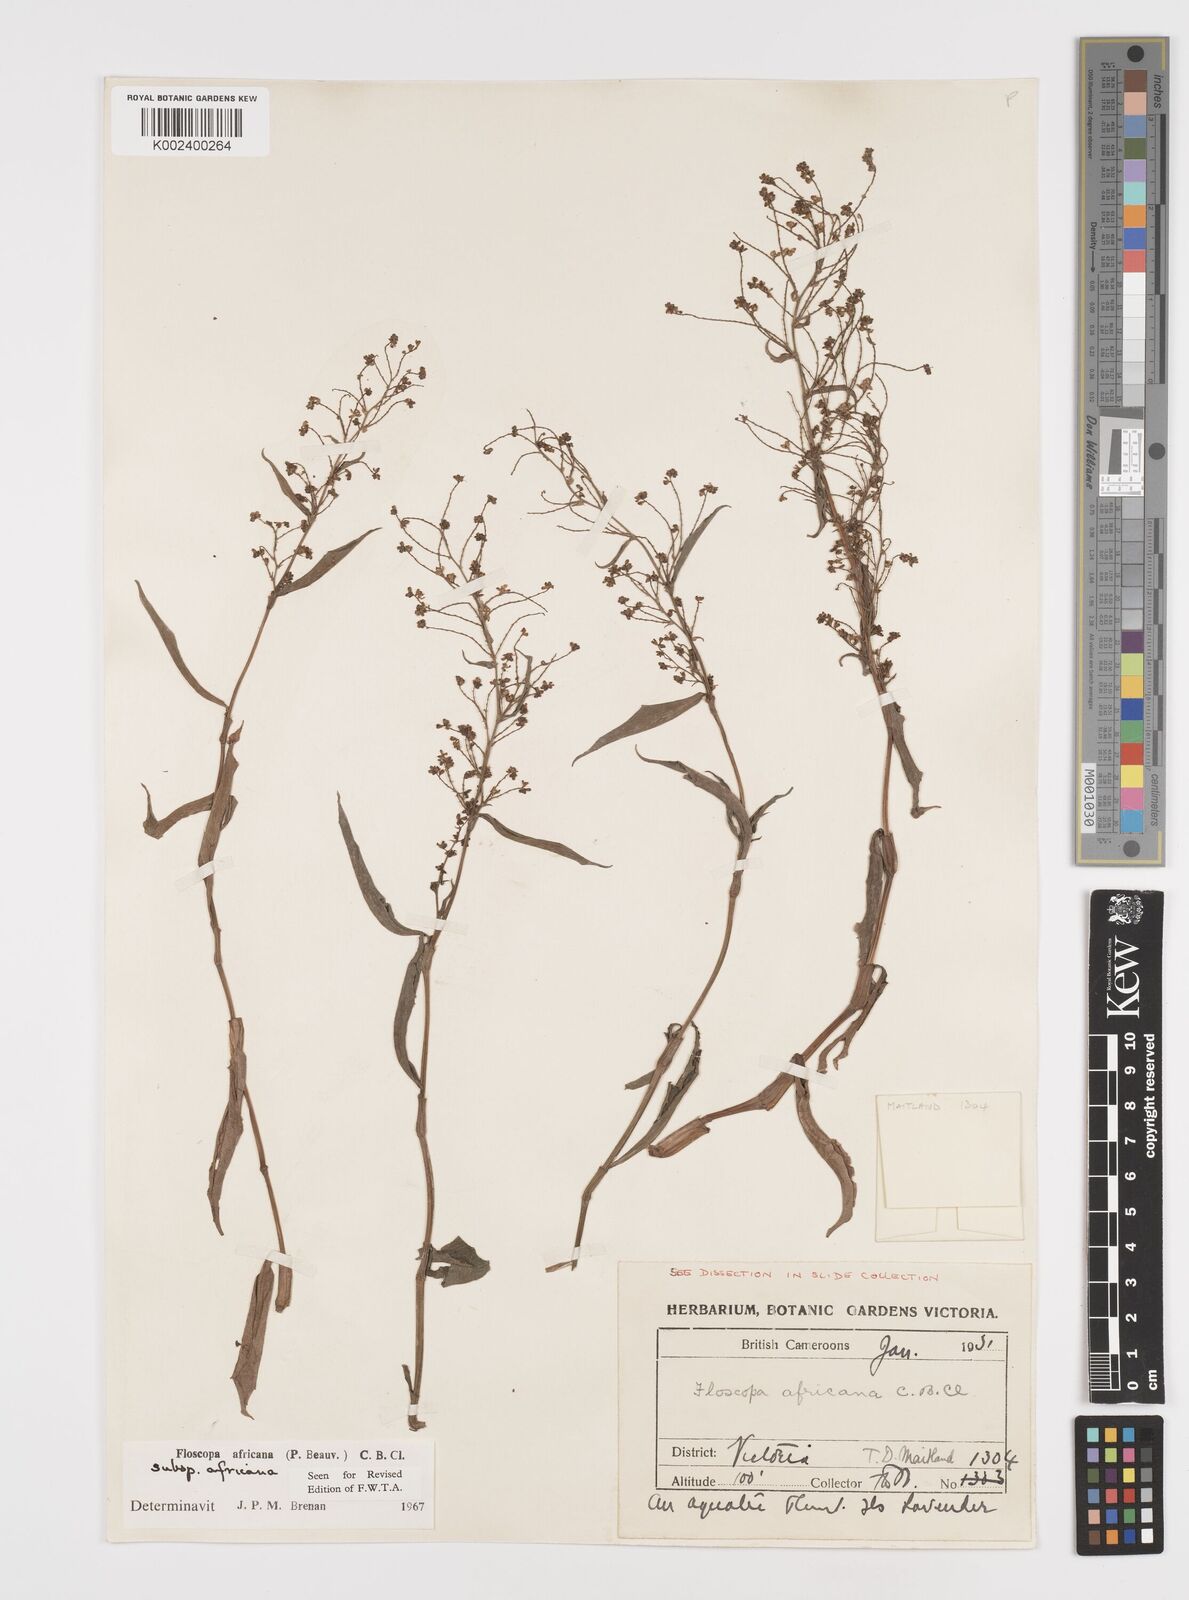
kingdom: Plantae
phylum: Tracheophyta
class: Liliopsida
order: Commelinales
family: Commelinaceae
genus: Floscopa
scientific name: Floscopa africana
